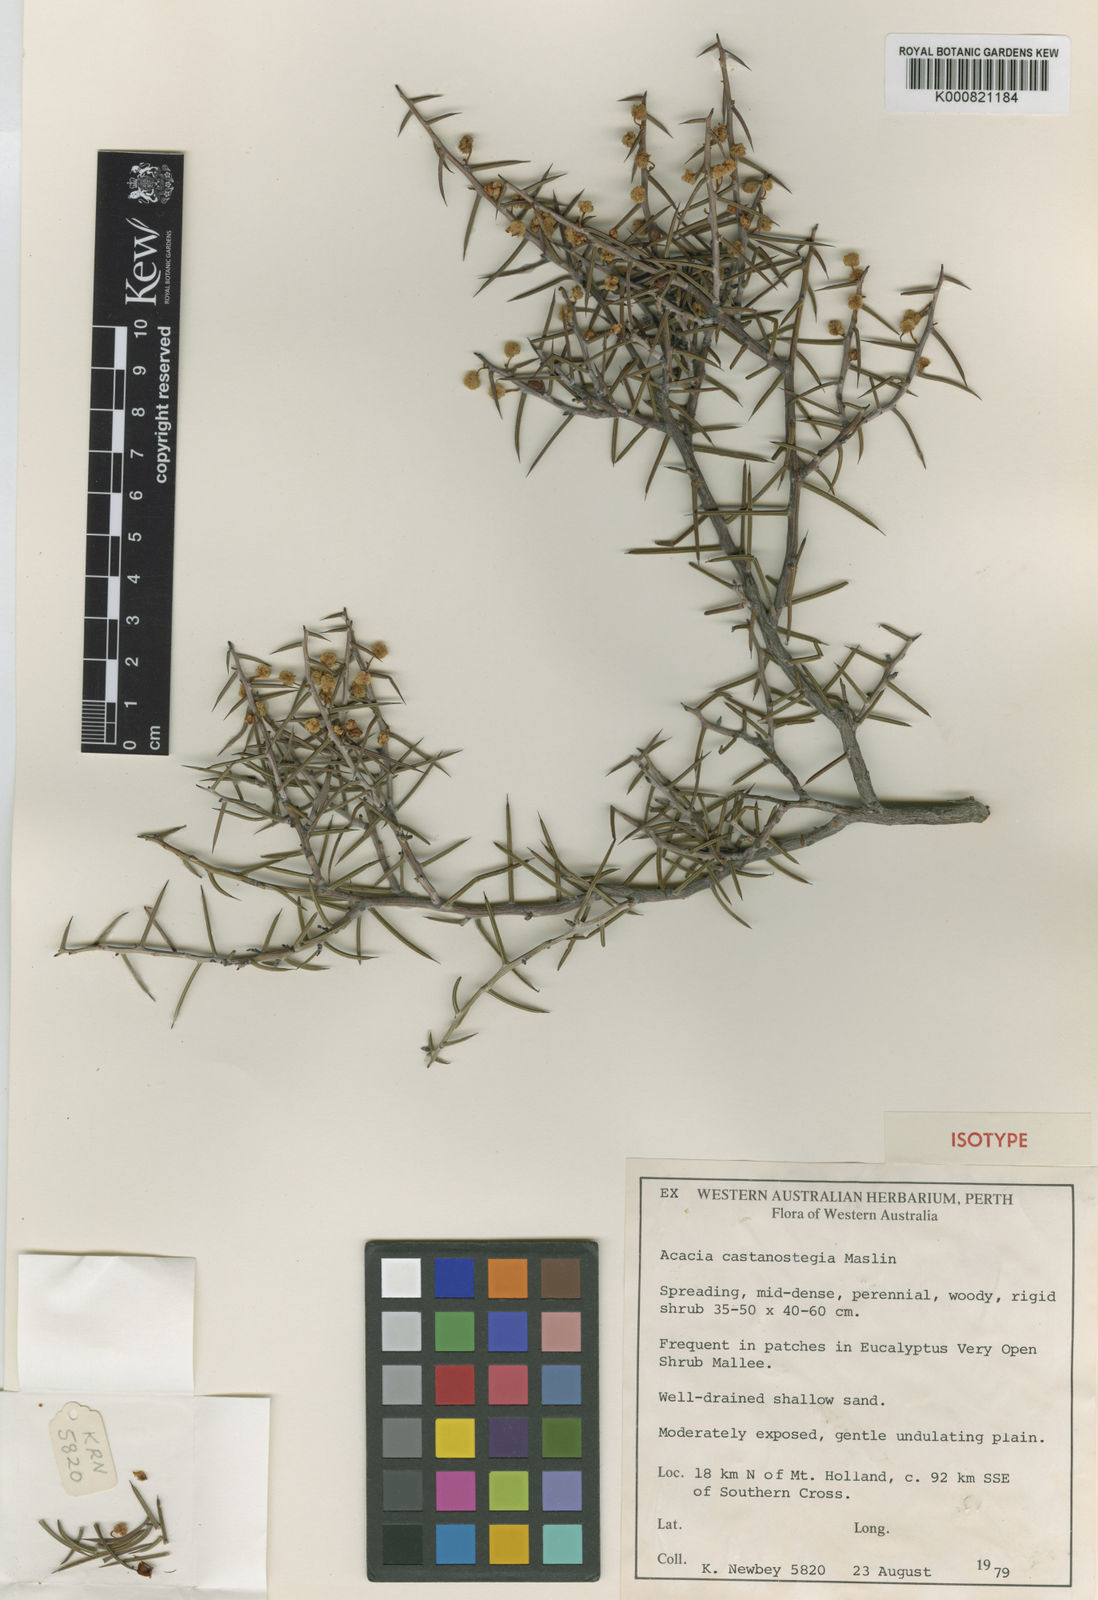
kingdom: Plantae
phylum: Tracheophyta
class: Magnoliopsida
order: Fabales
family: Fabaceae
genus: Acacia
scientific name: Acacia castanostegia
